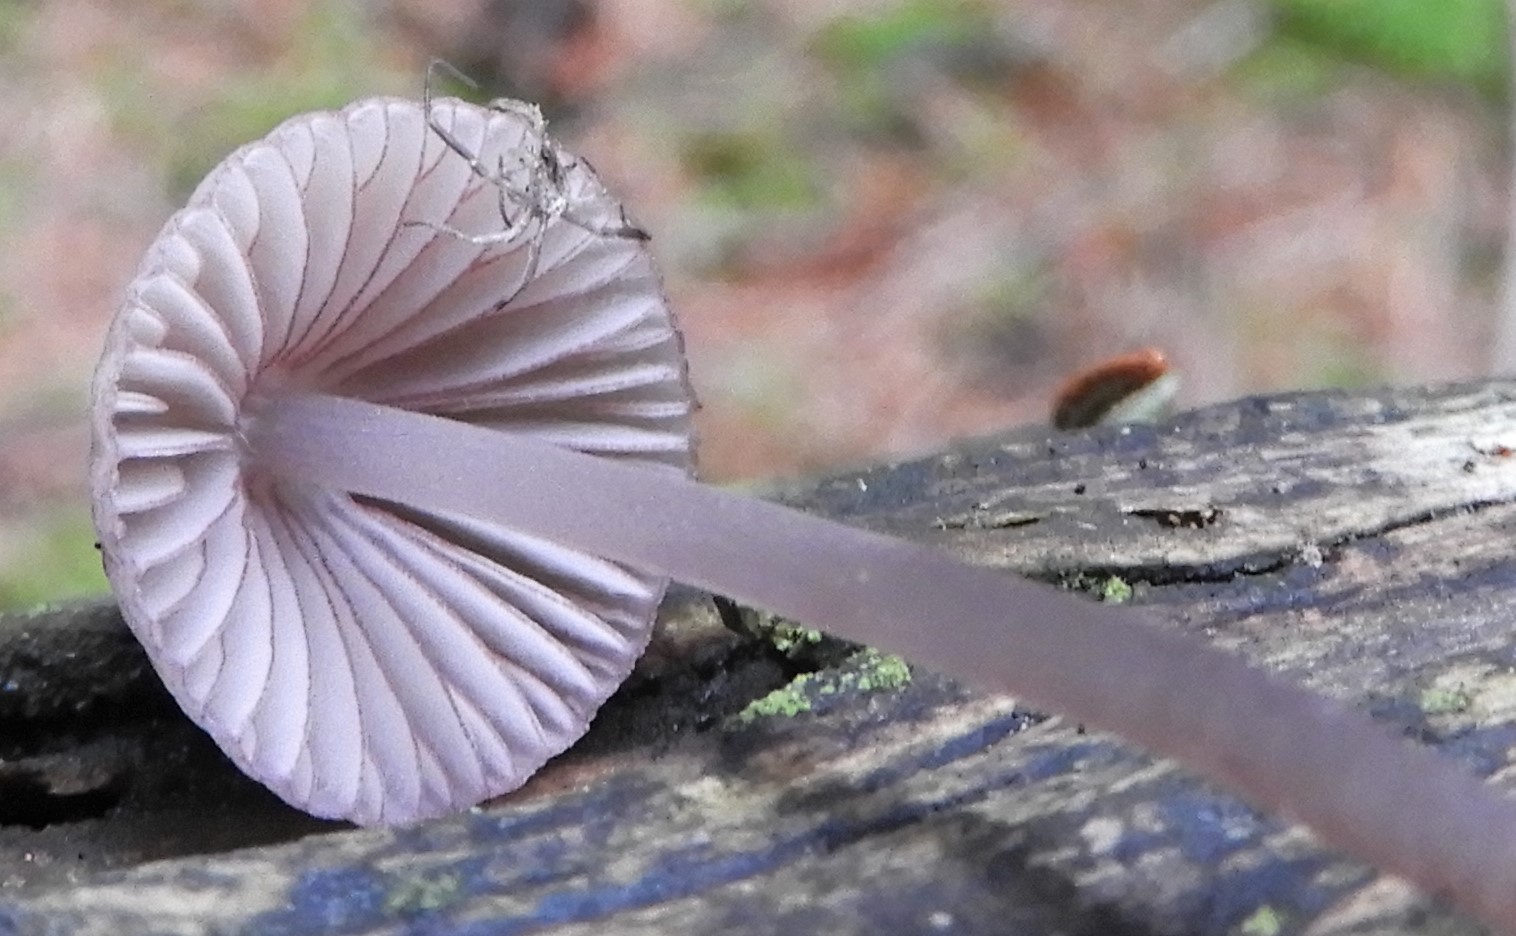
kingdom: Fungi
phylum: Basidiomycota
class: Agaricomycetes
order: Agaricales
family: Mycenaceae
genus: Mycena
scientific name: Mycena purpureofusca
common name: purpur-huesvamp
